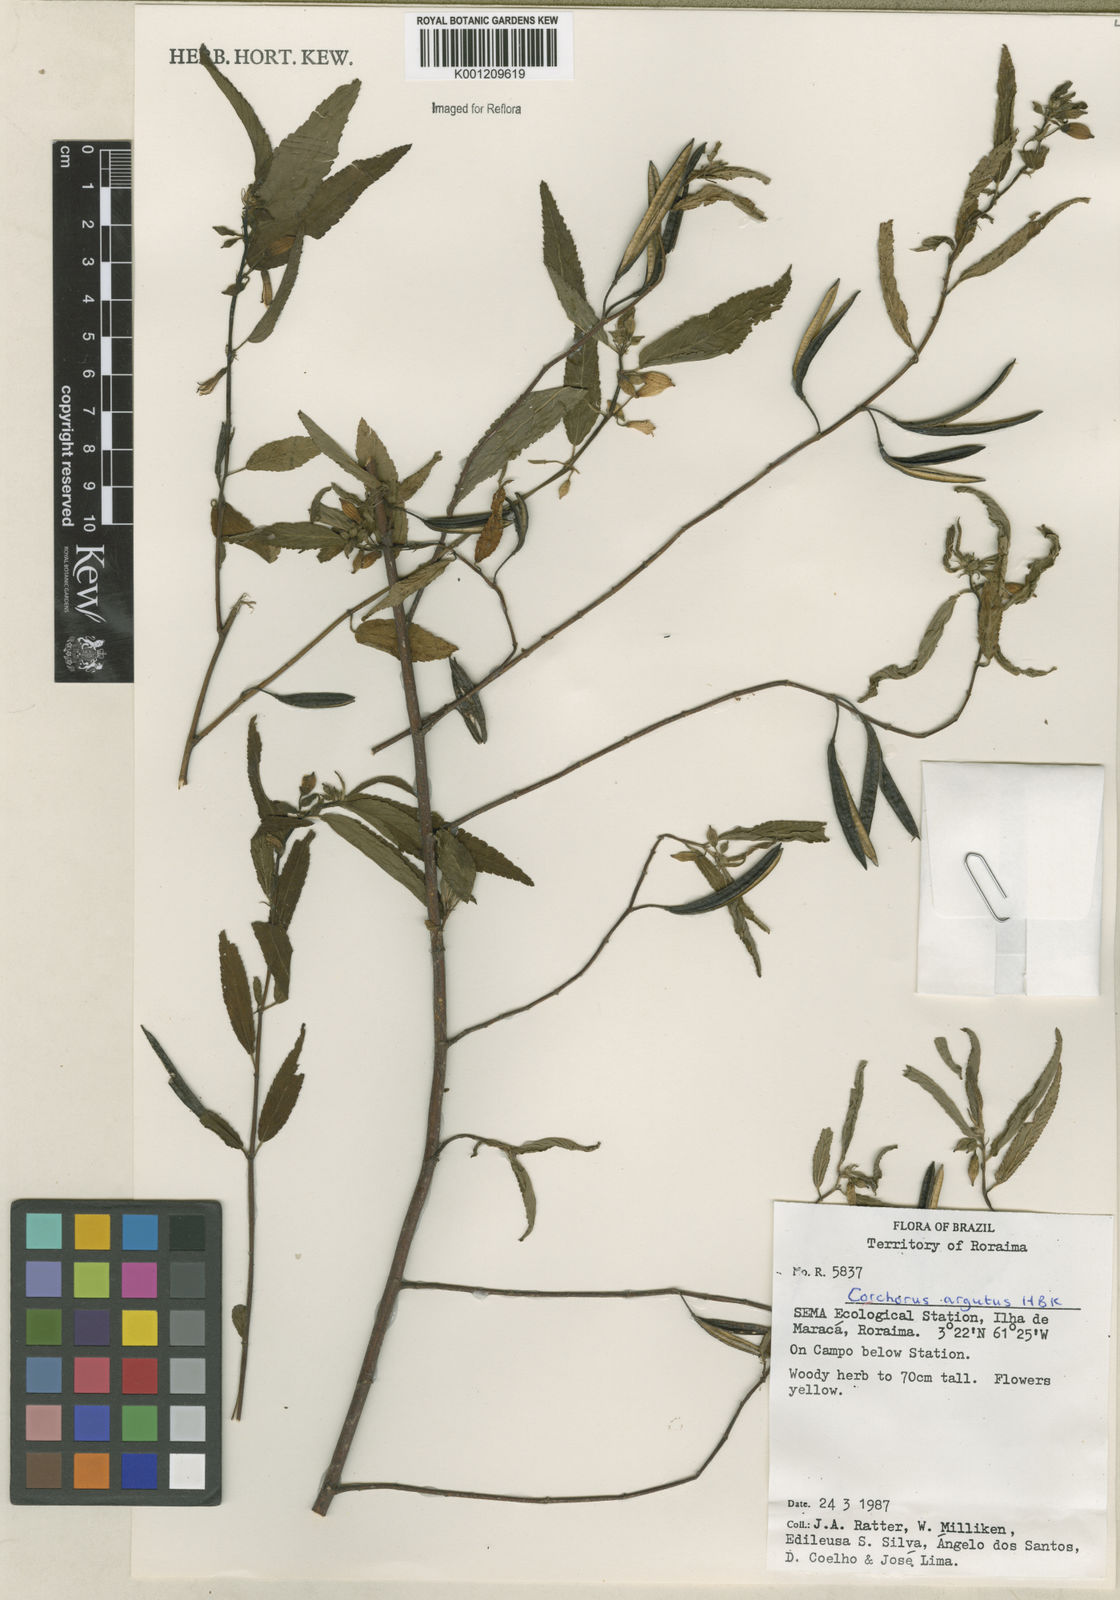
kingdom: Plantae
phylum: Tracheophyta
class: Magnoliopsida
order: Malvales
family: Malvaceae
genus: Corchorus
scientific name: Corchorus argutus
